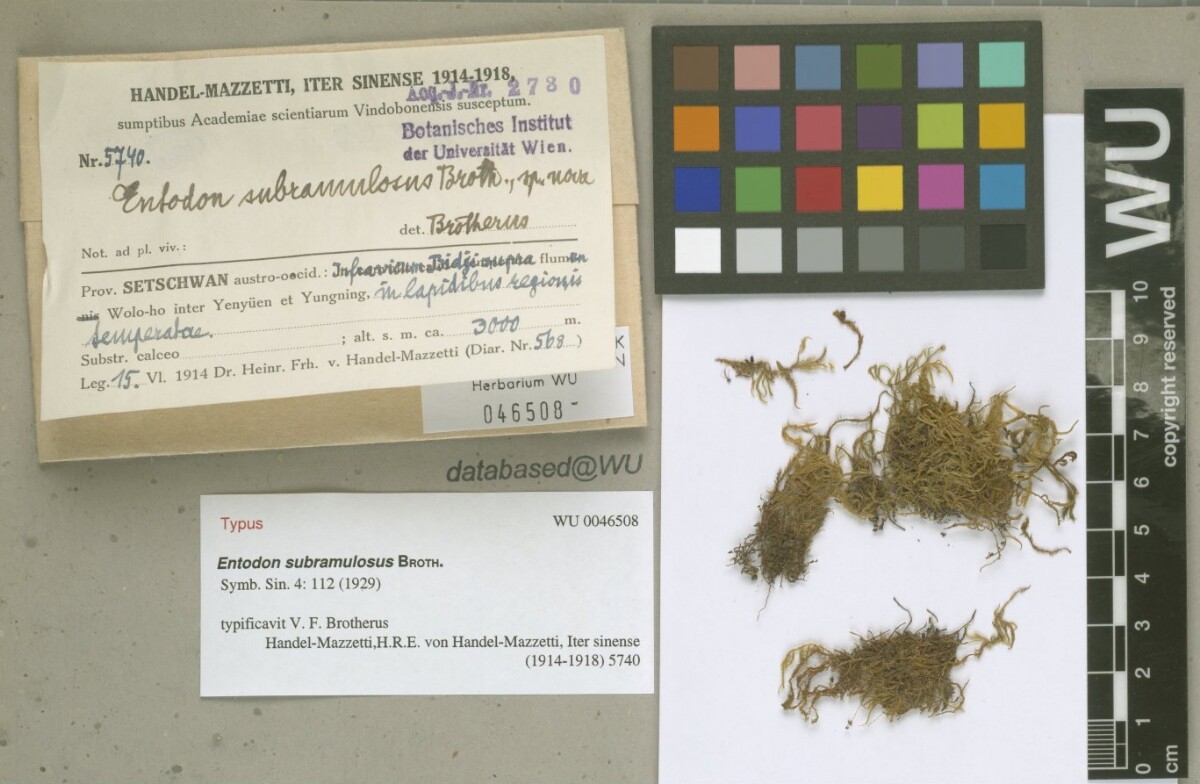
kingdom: Plantae
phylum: Bryophyta
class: Bryopsida
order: Hypnales
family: Entodontaceae
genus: Entodon
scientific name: Entodon concinnus
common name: Montagne's cylinder-moss
